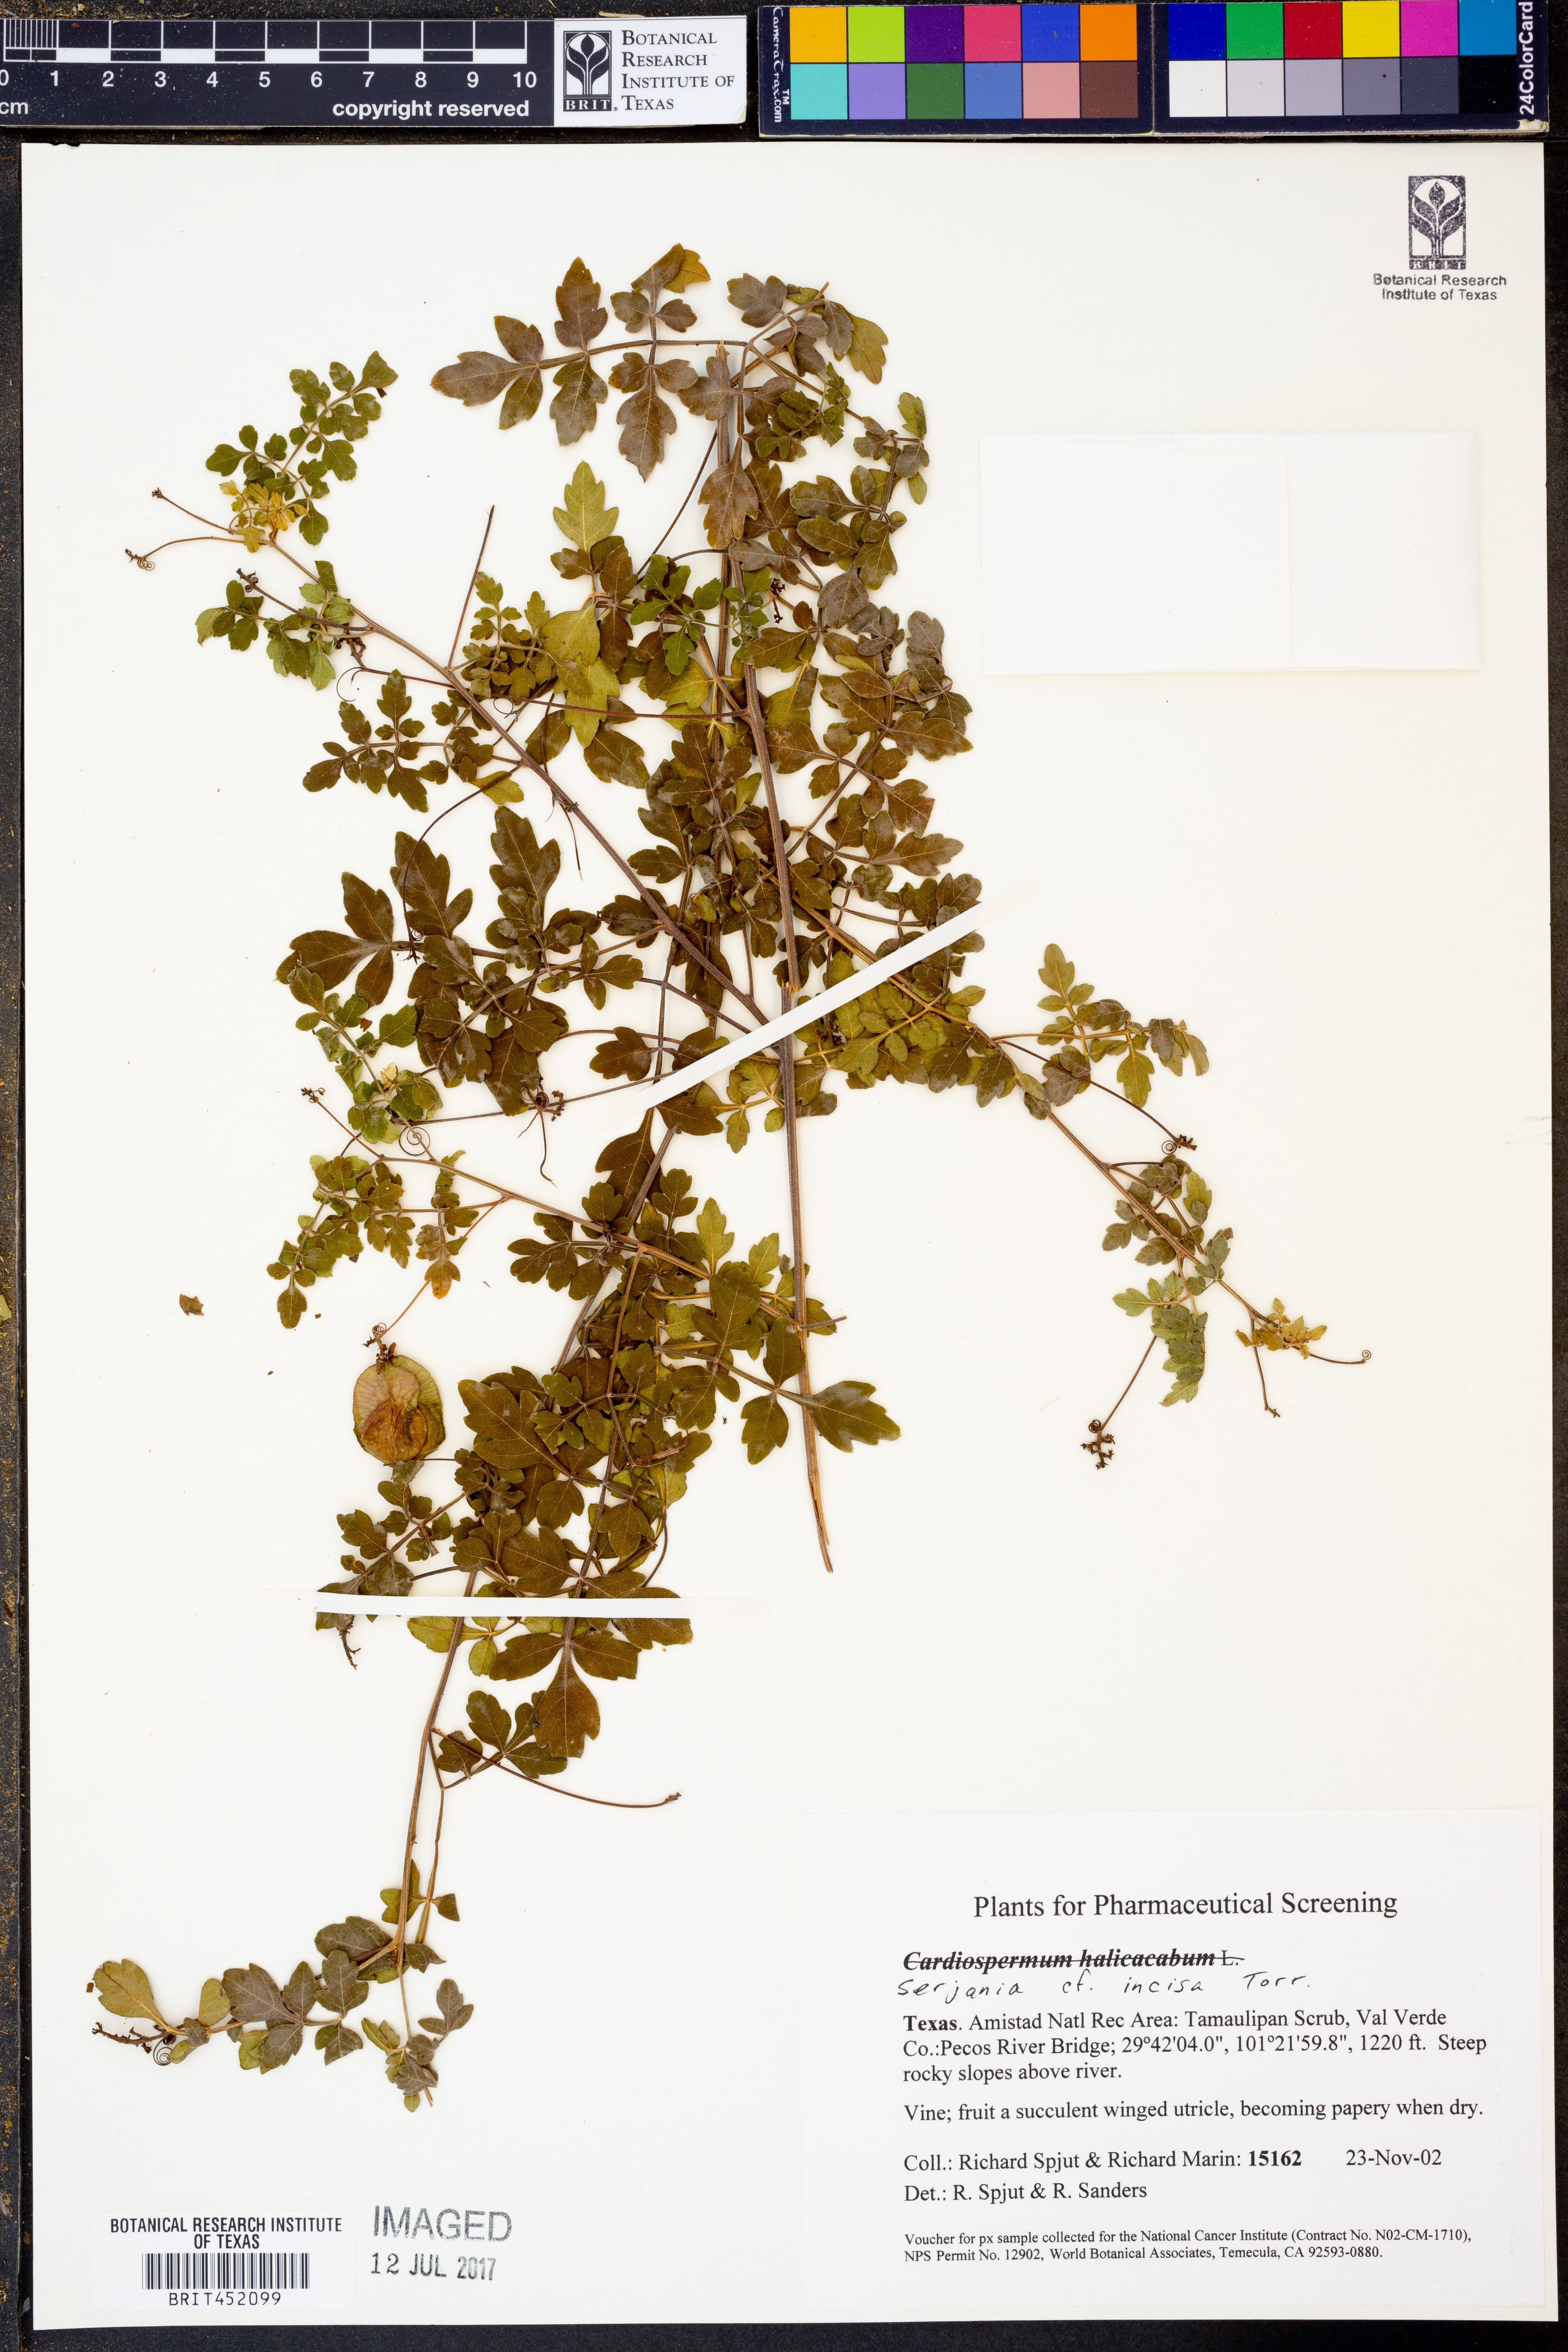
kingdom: Plantae
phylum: Tracheophyta
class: Magnoliopsida
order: Sapindales
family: Sapindaceae
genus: Serjania
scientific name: Serjania incisa
